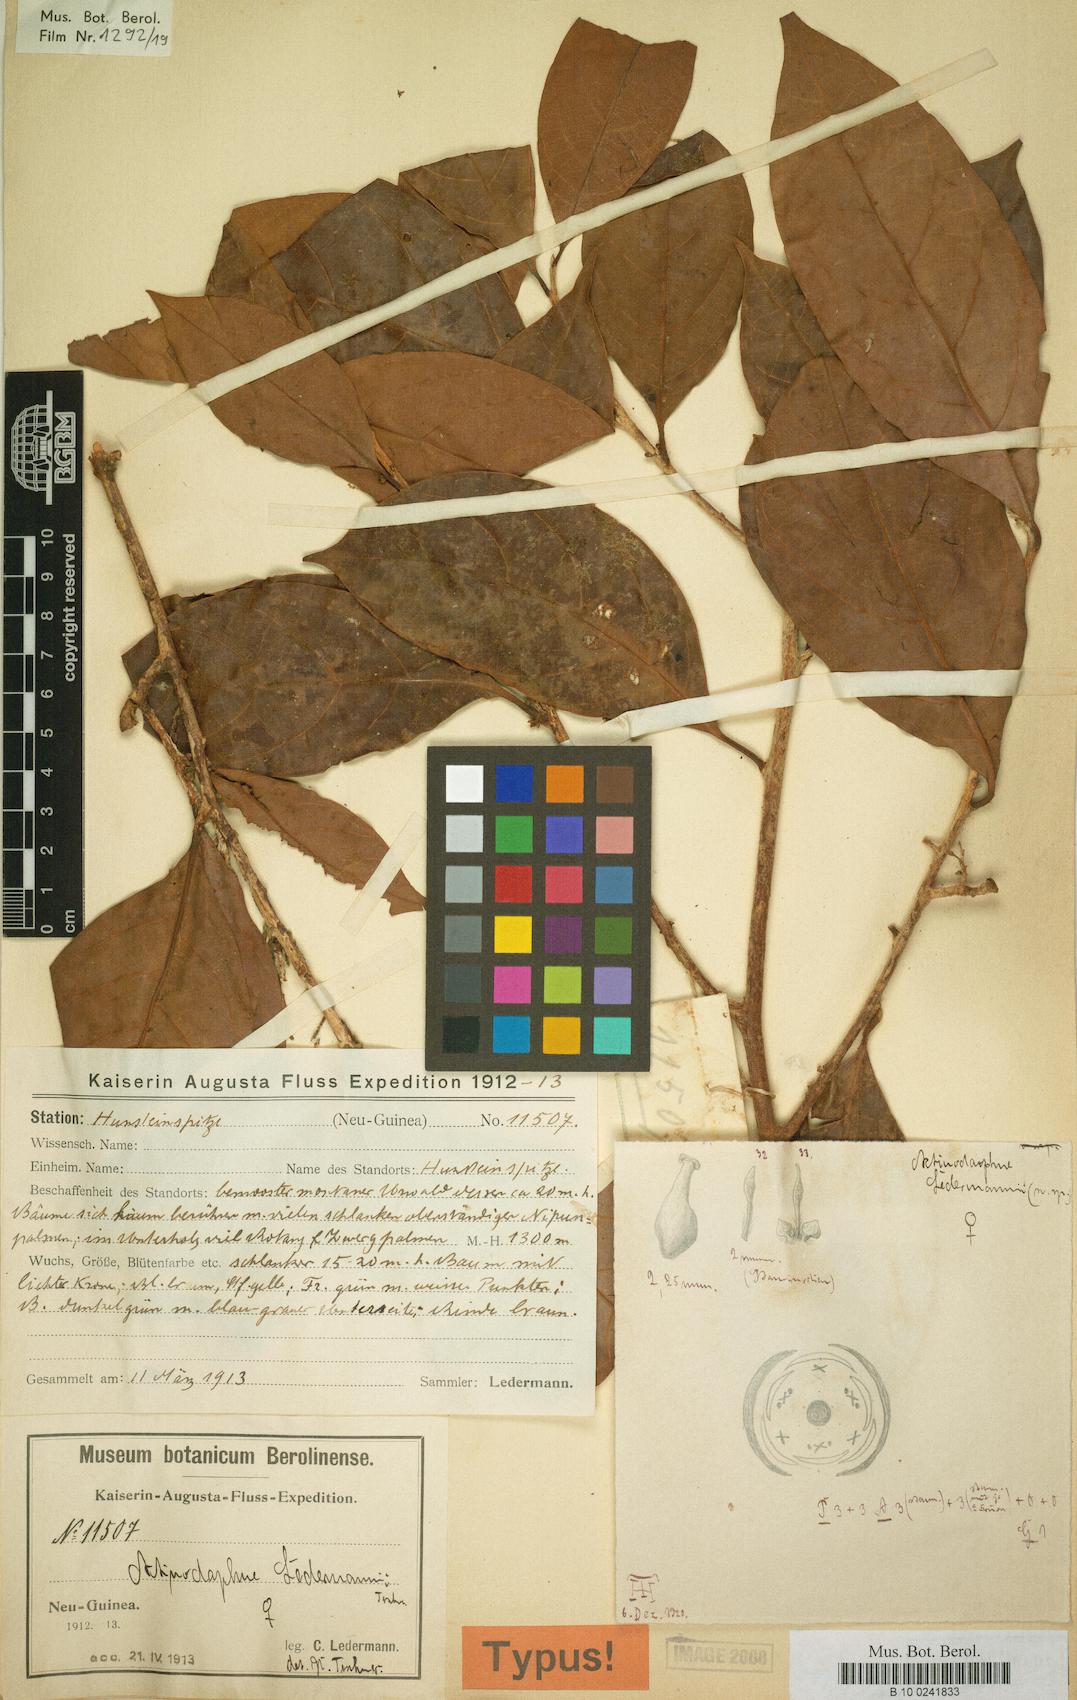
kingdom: Plantae
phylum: Tracheophyta
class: Magnoliopsida
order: Laurales
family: Lauraceae
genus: Actinodaphne
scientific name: Actinodaphne nitida
